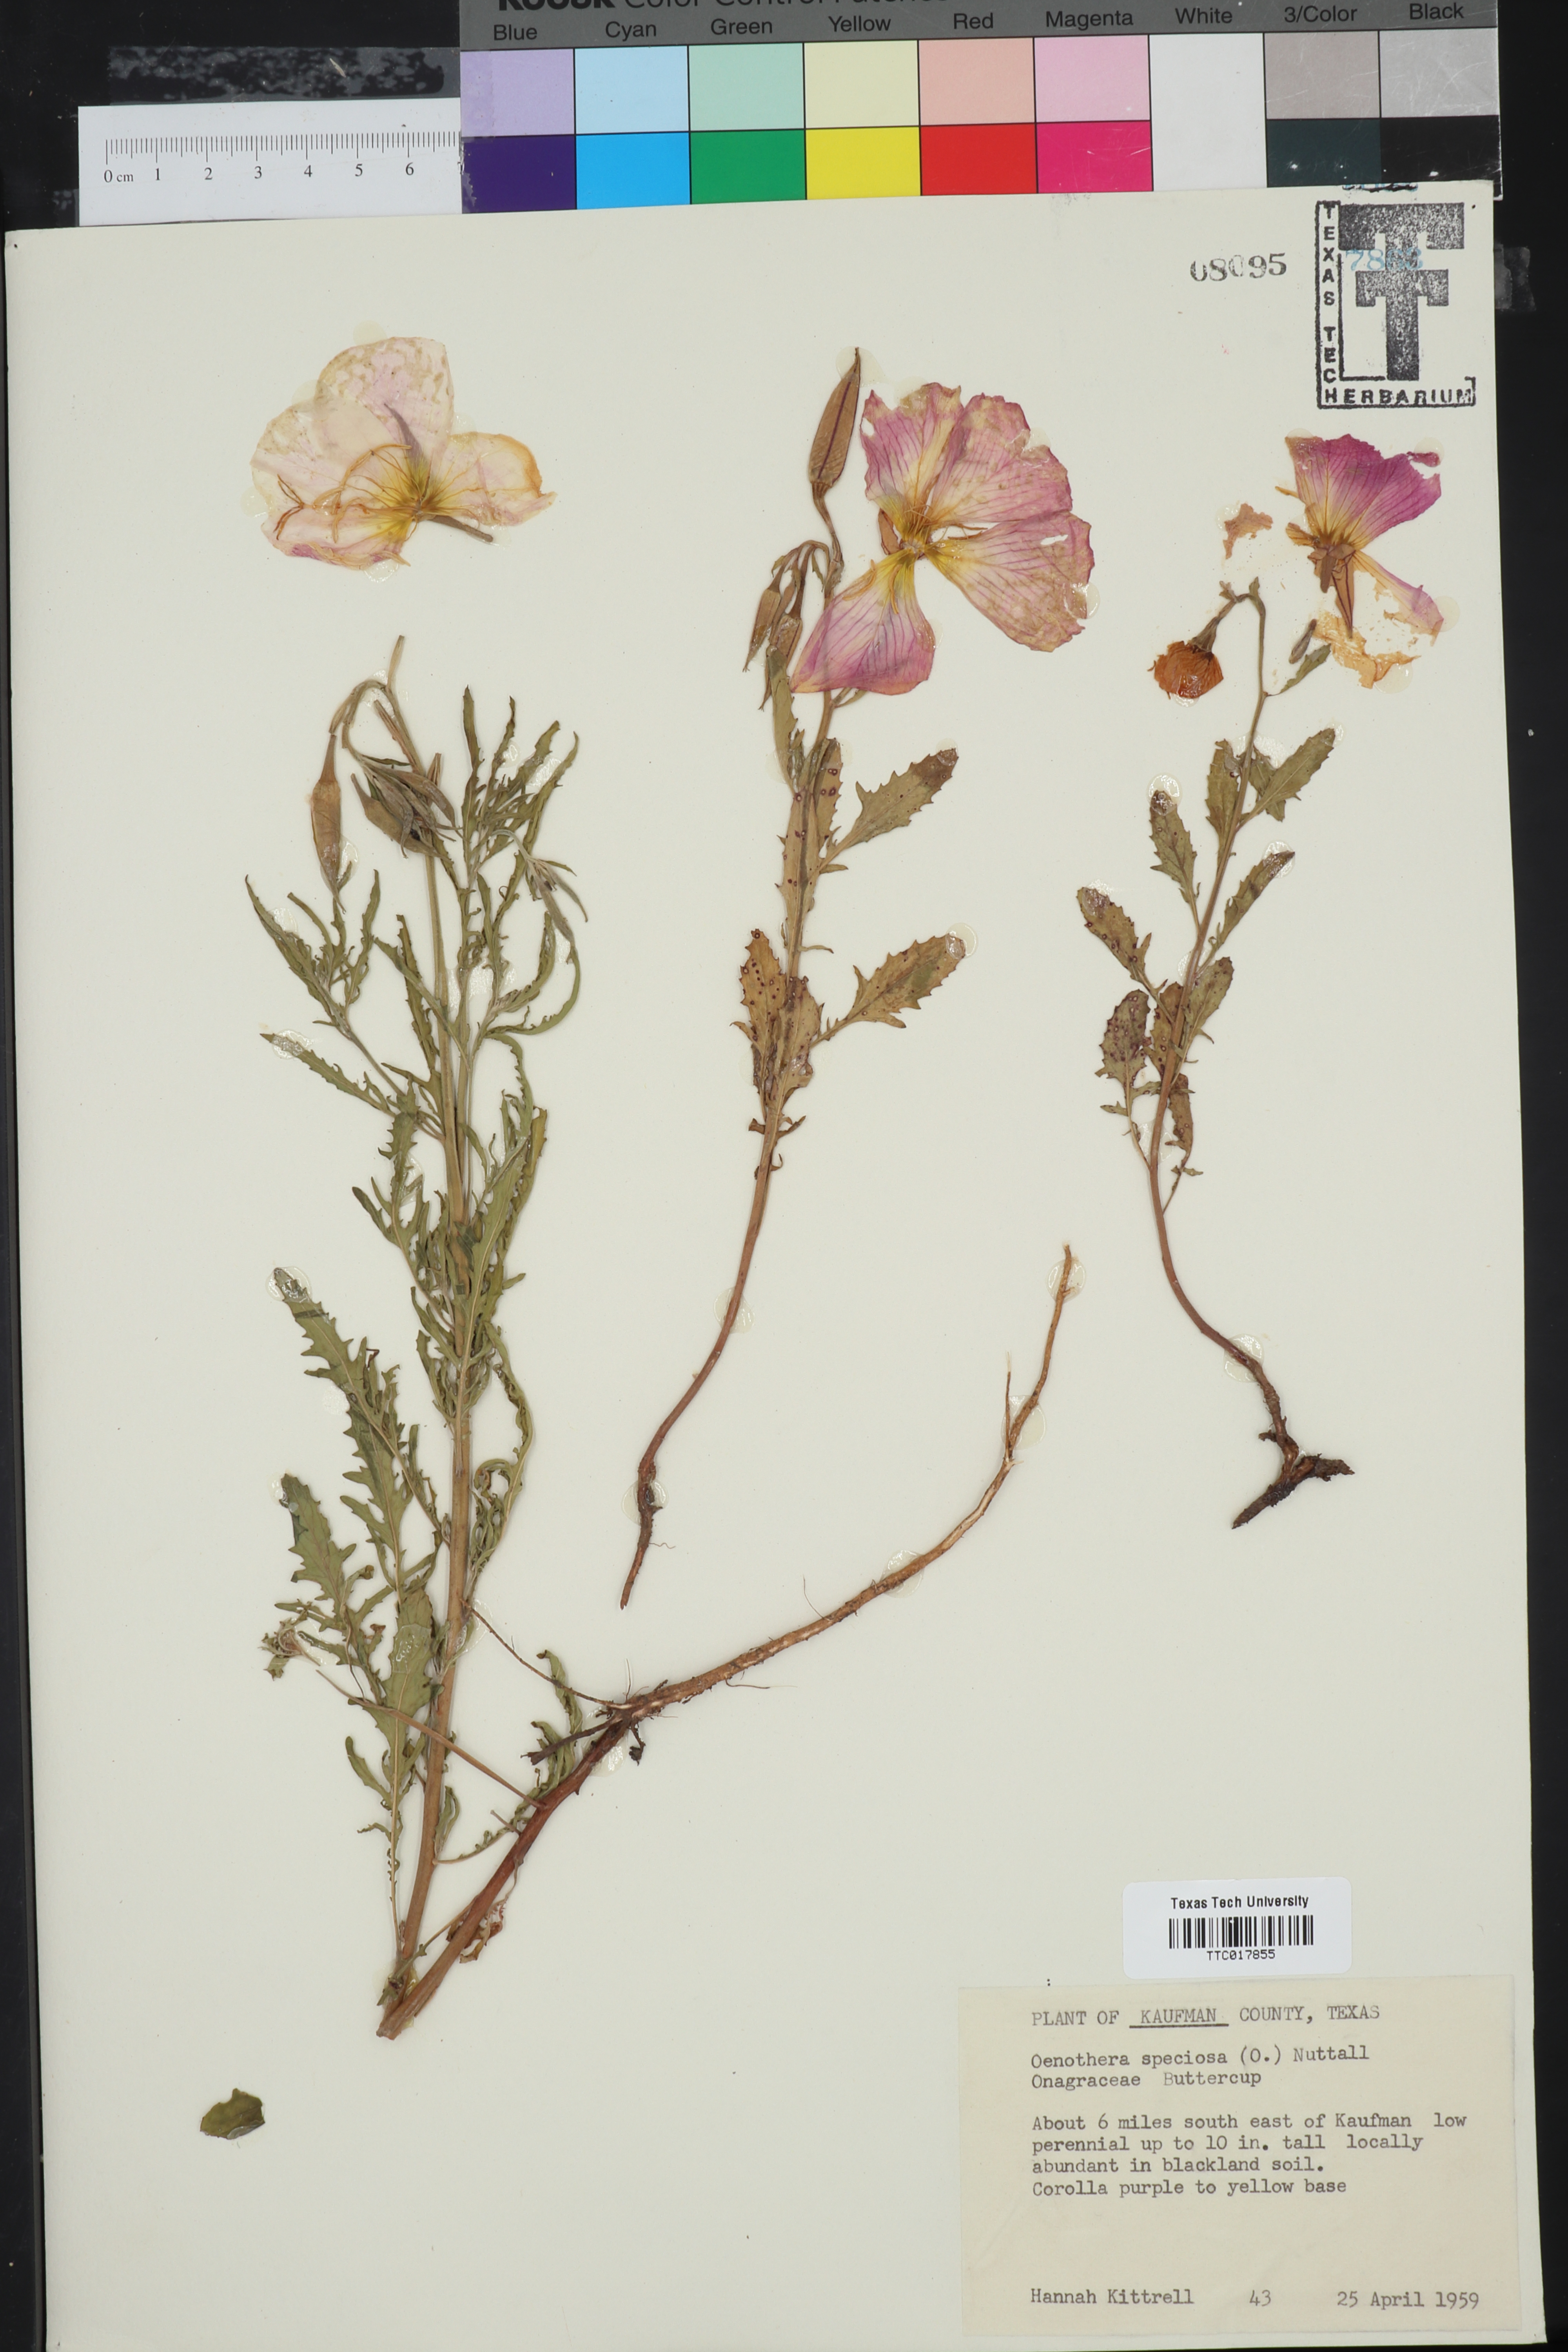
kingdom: Plantae
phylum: Tracheophyta
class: Magnoliopsida
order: Myrtales
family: Onagraceae
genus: Oenothera
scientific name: Oenothera speciosa
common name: White evening-primrose
